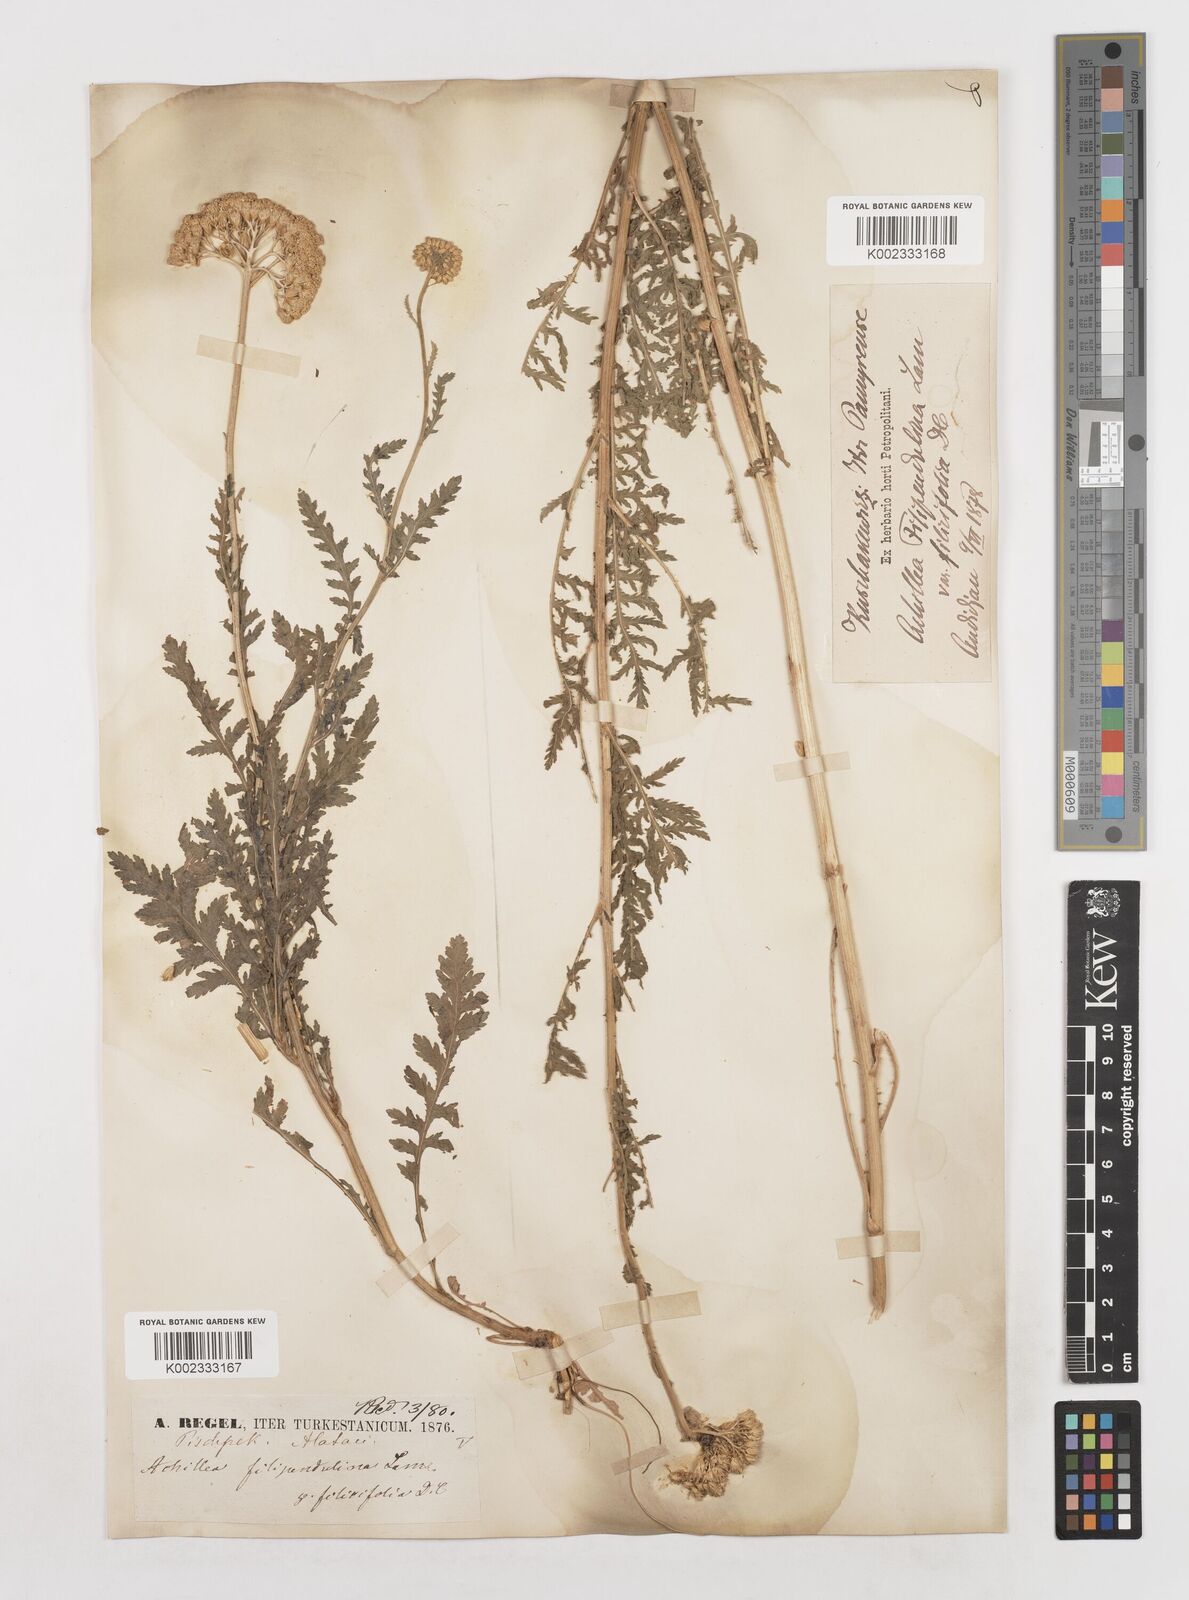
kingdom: Plantae
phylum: Tracheophyta
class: Magnoliopsida
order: Asterales
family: Asteraceae
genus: Achillea
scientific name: Achillea filipendulina
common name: Fernleaf yarrow
